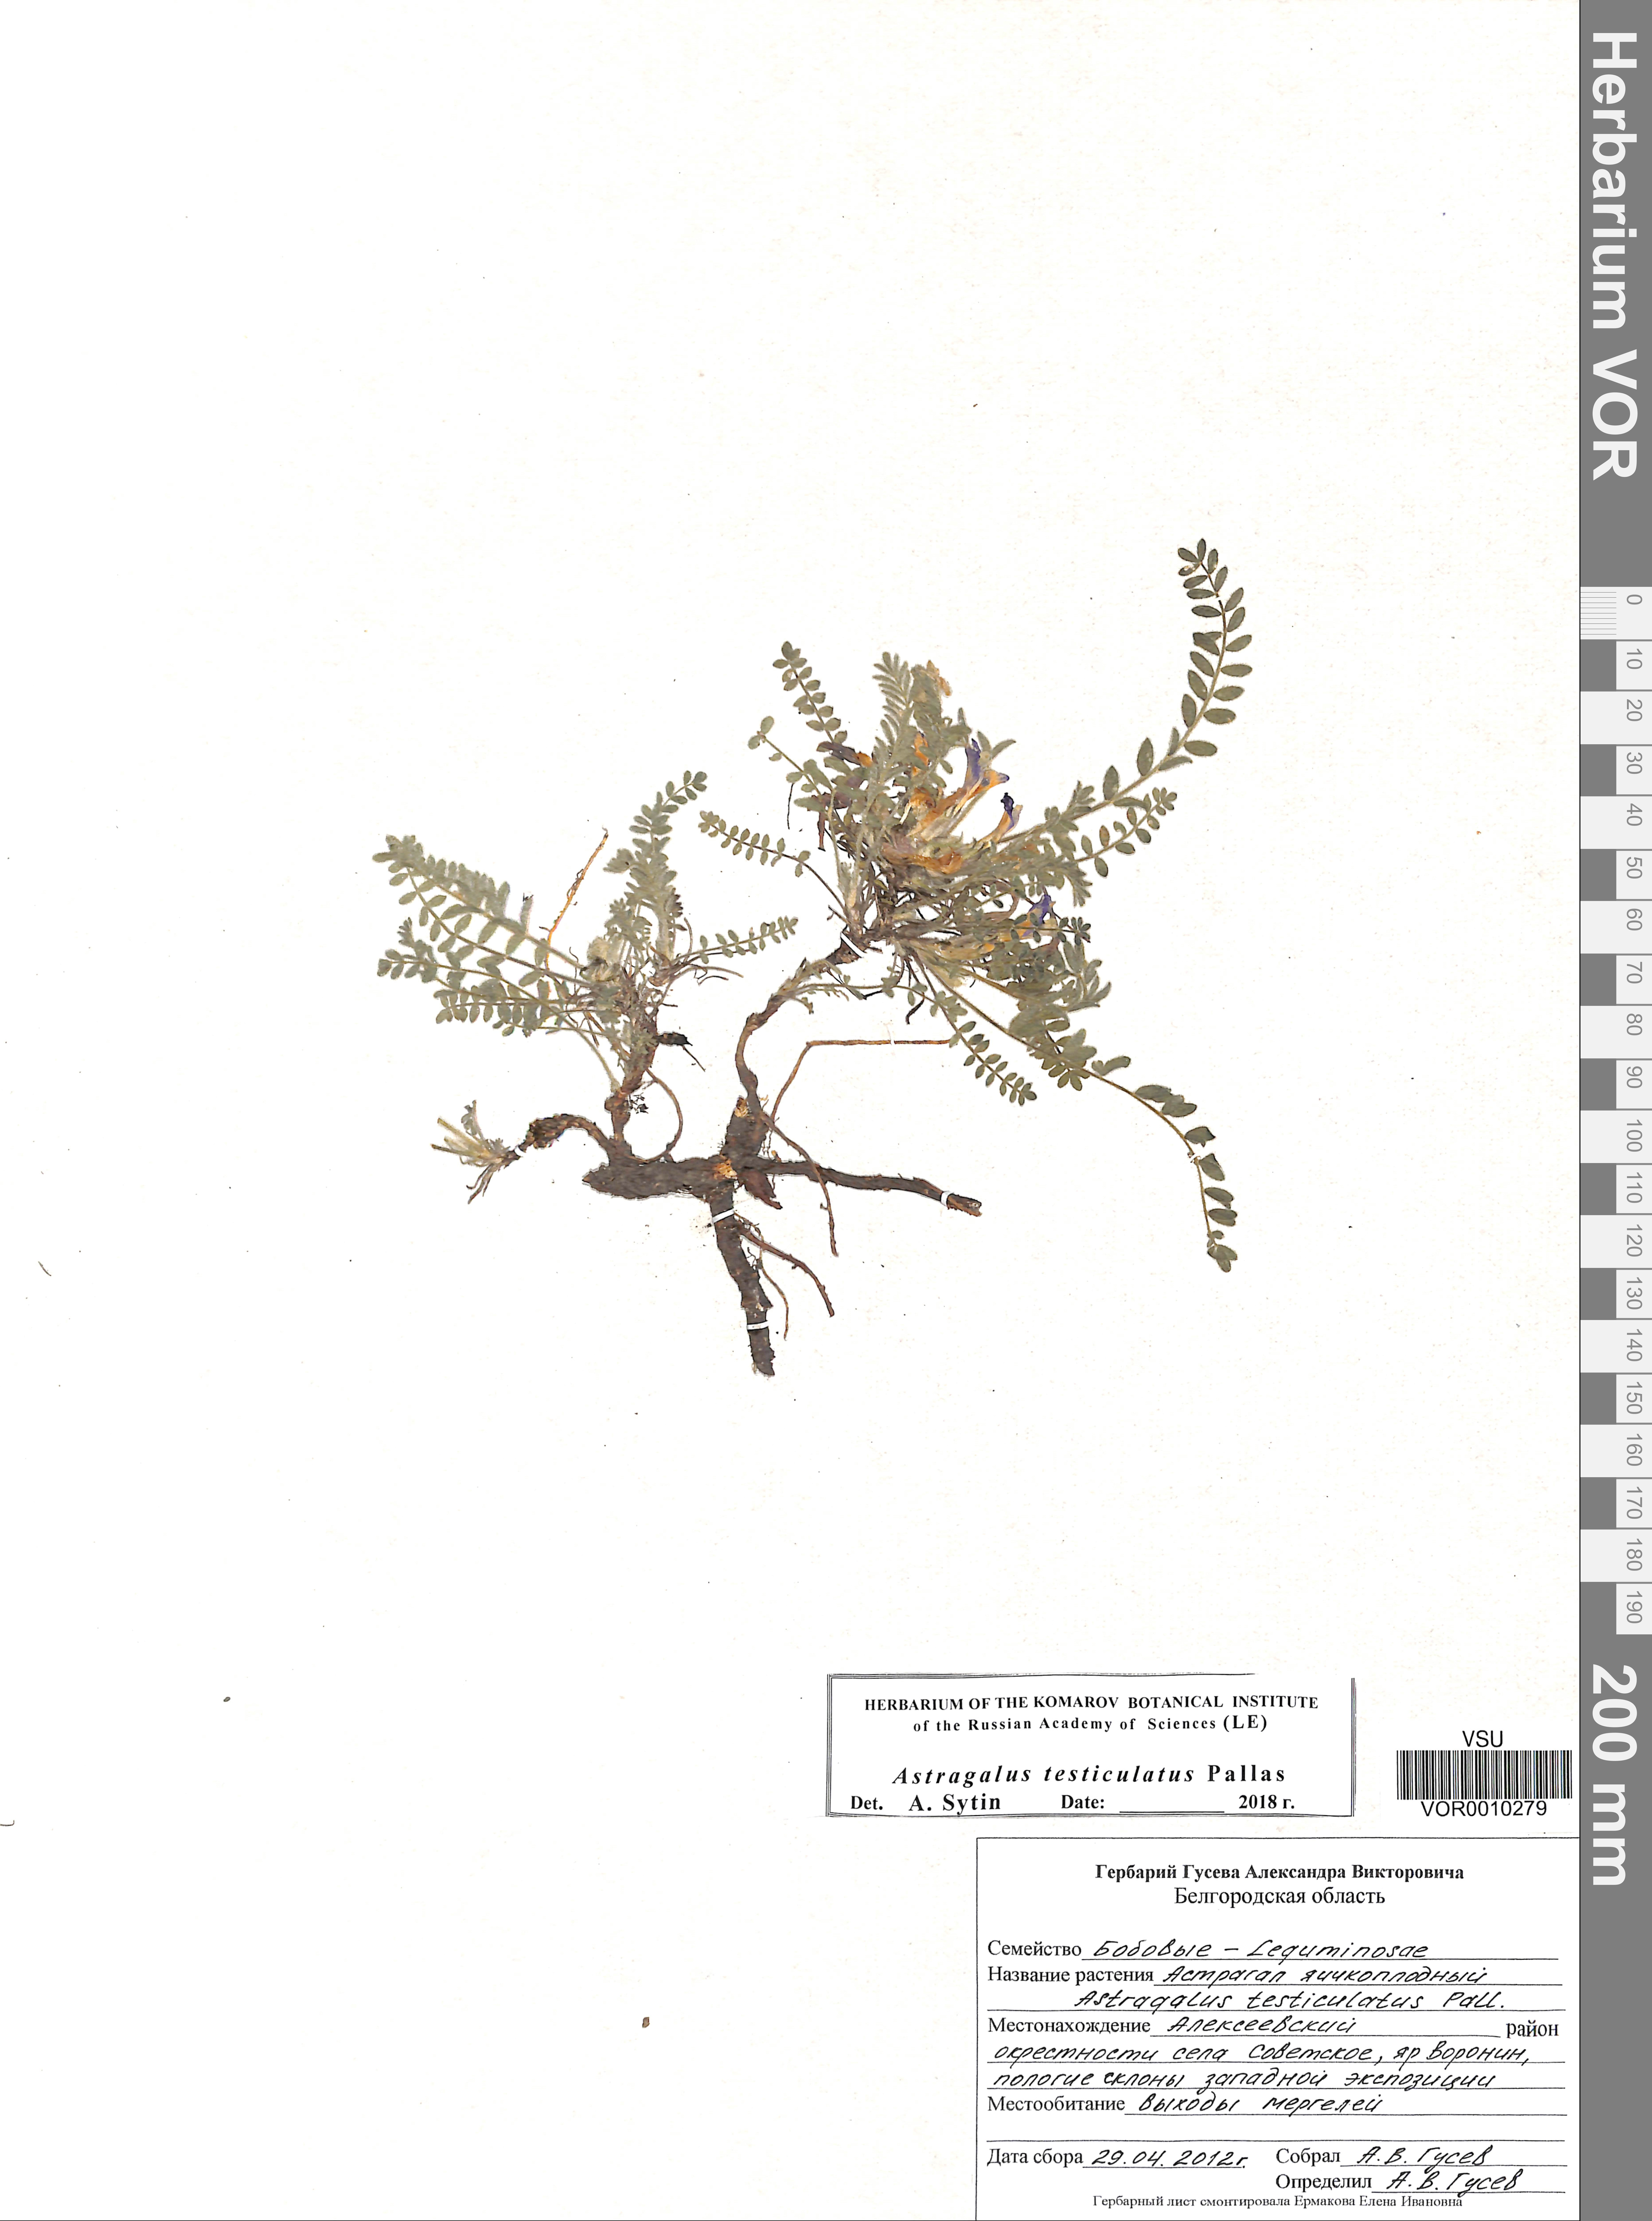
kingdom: Plantae
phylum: Tracheophyta
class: Magnoliopsida
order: Fabales
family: Fabaceae
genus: Astragalus
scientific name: Astragalus testiculatus
